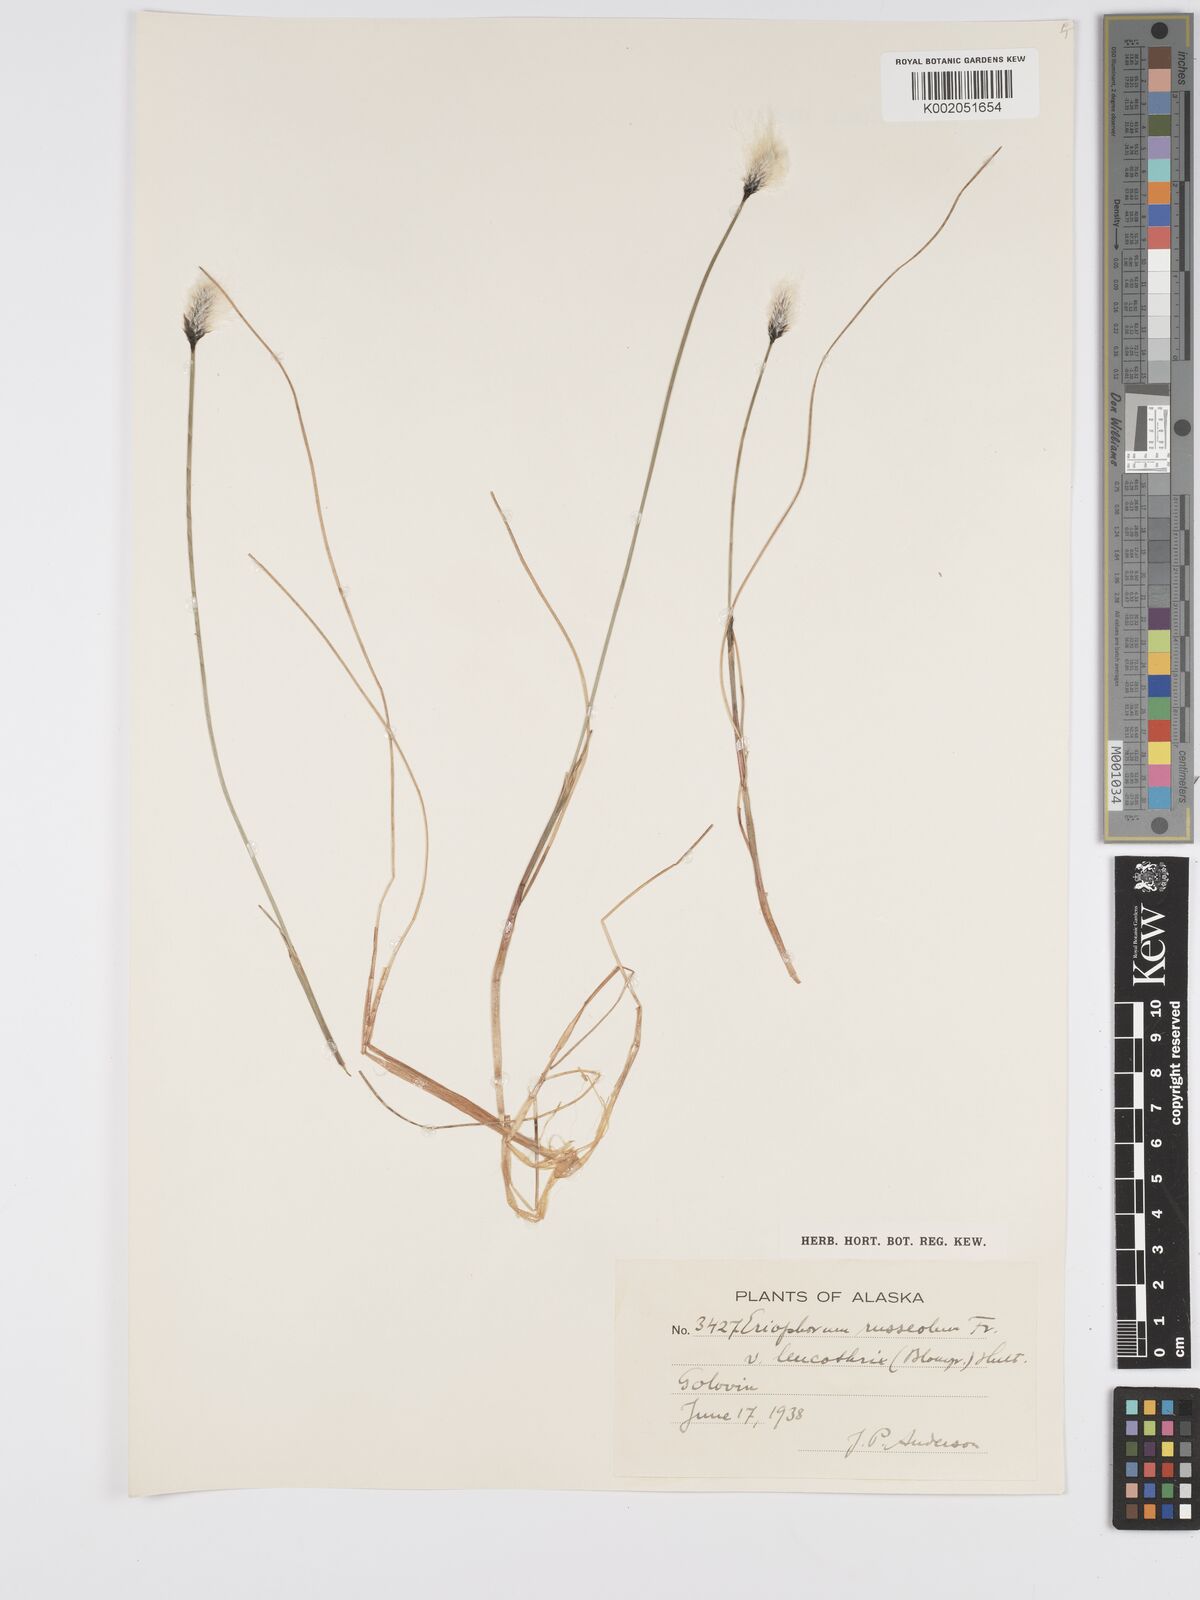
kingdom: Plantae
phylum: Tracheophyta
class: Liliopsida
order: Poales
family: Cyperaceae
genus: Eriophorum
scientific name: Eriophorum chamissonis
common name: Chamisso's cottongrass
